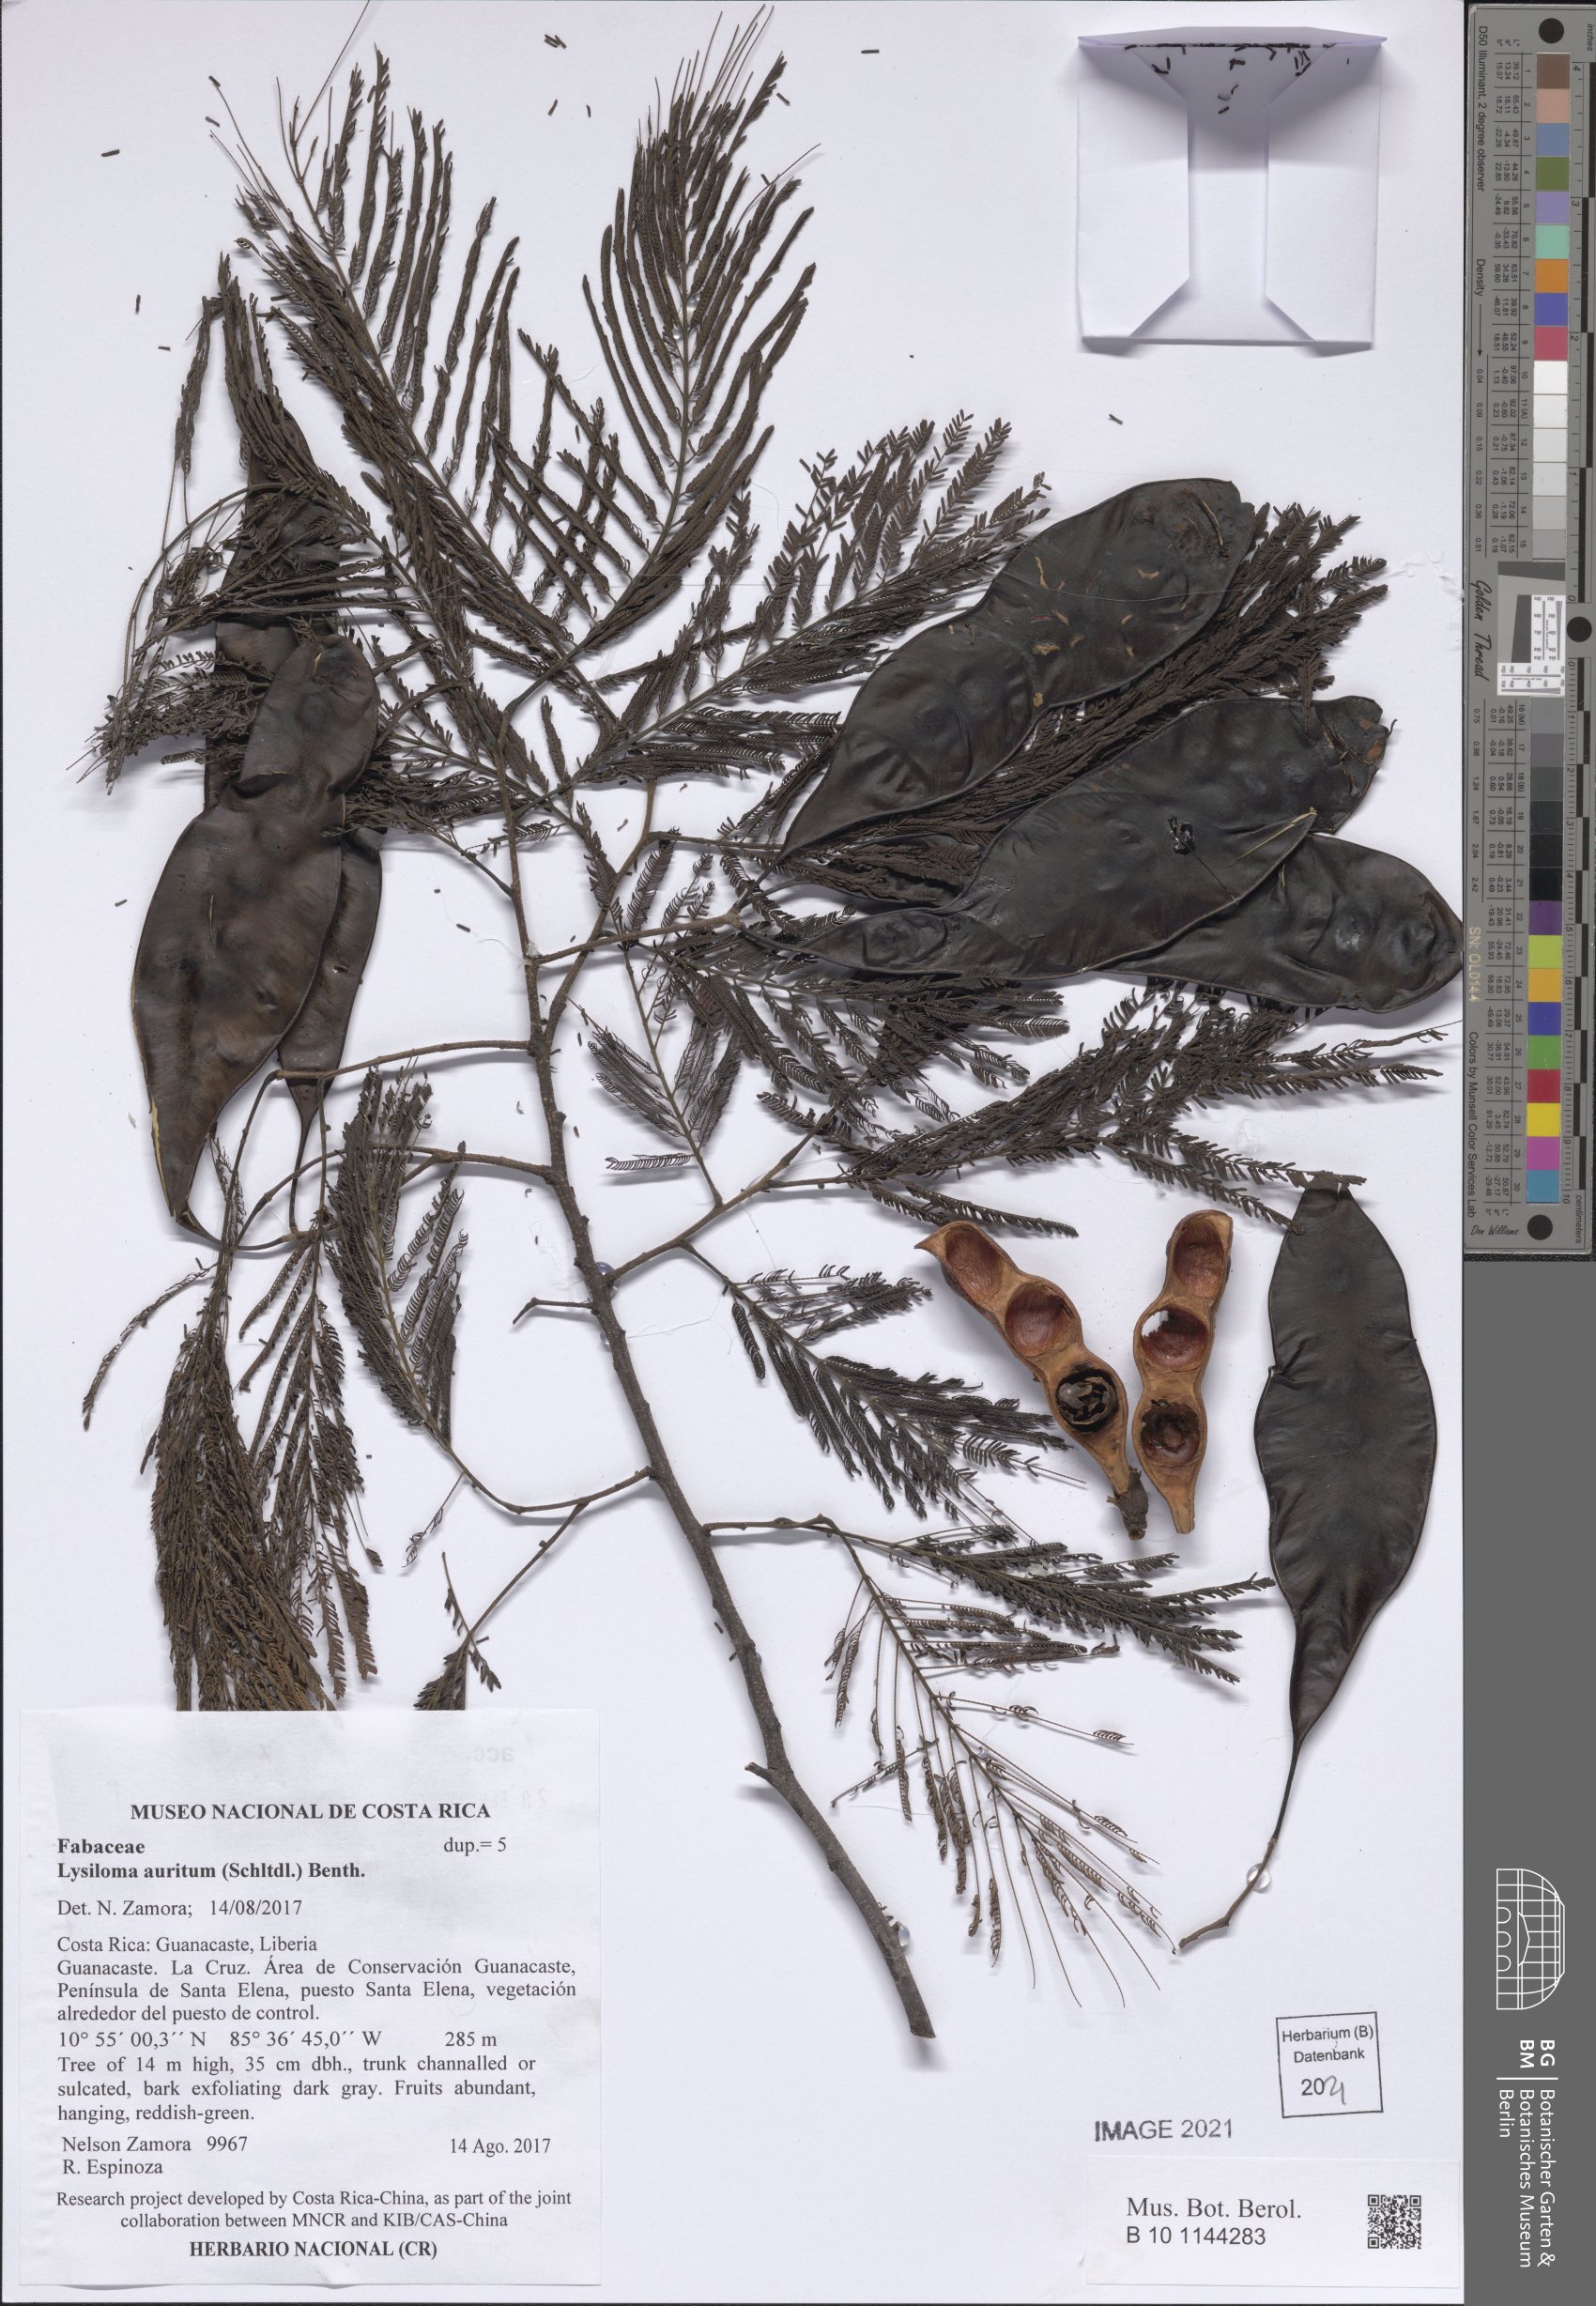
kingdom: Plantae
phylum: Tracheophyta
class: Magnoliopsida
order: Fabales
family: Fabaceae
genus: Lysiloma
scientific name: Lysiloma auritum
